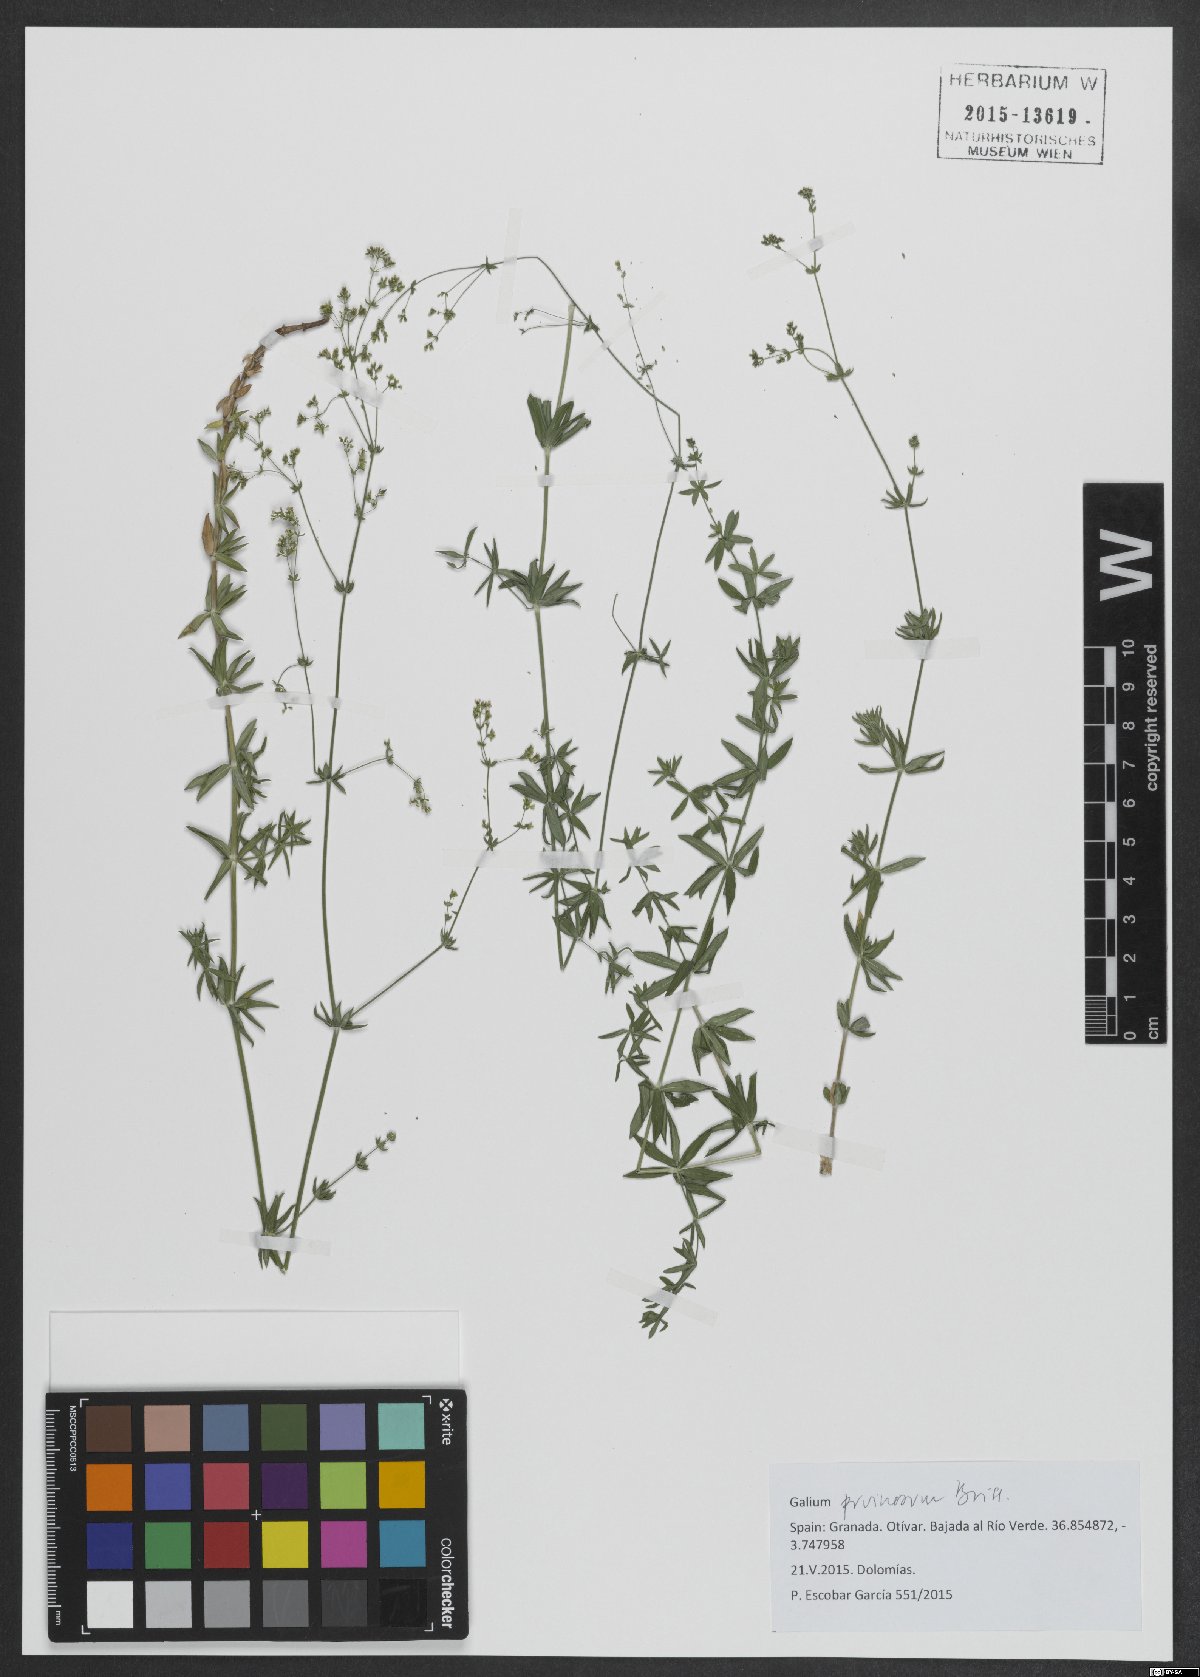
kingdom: Plantae
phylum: Tracheophyta
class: Magnoliopsida
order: Gentianales
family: Rubiaceae
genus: Galium
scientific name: Galium pruinosum
